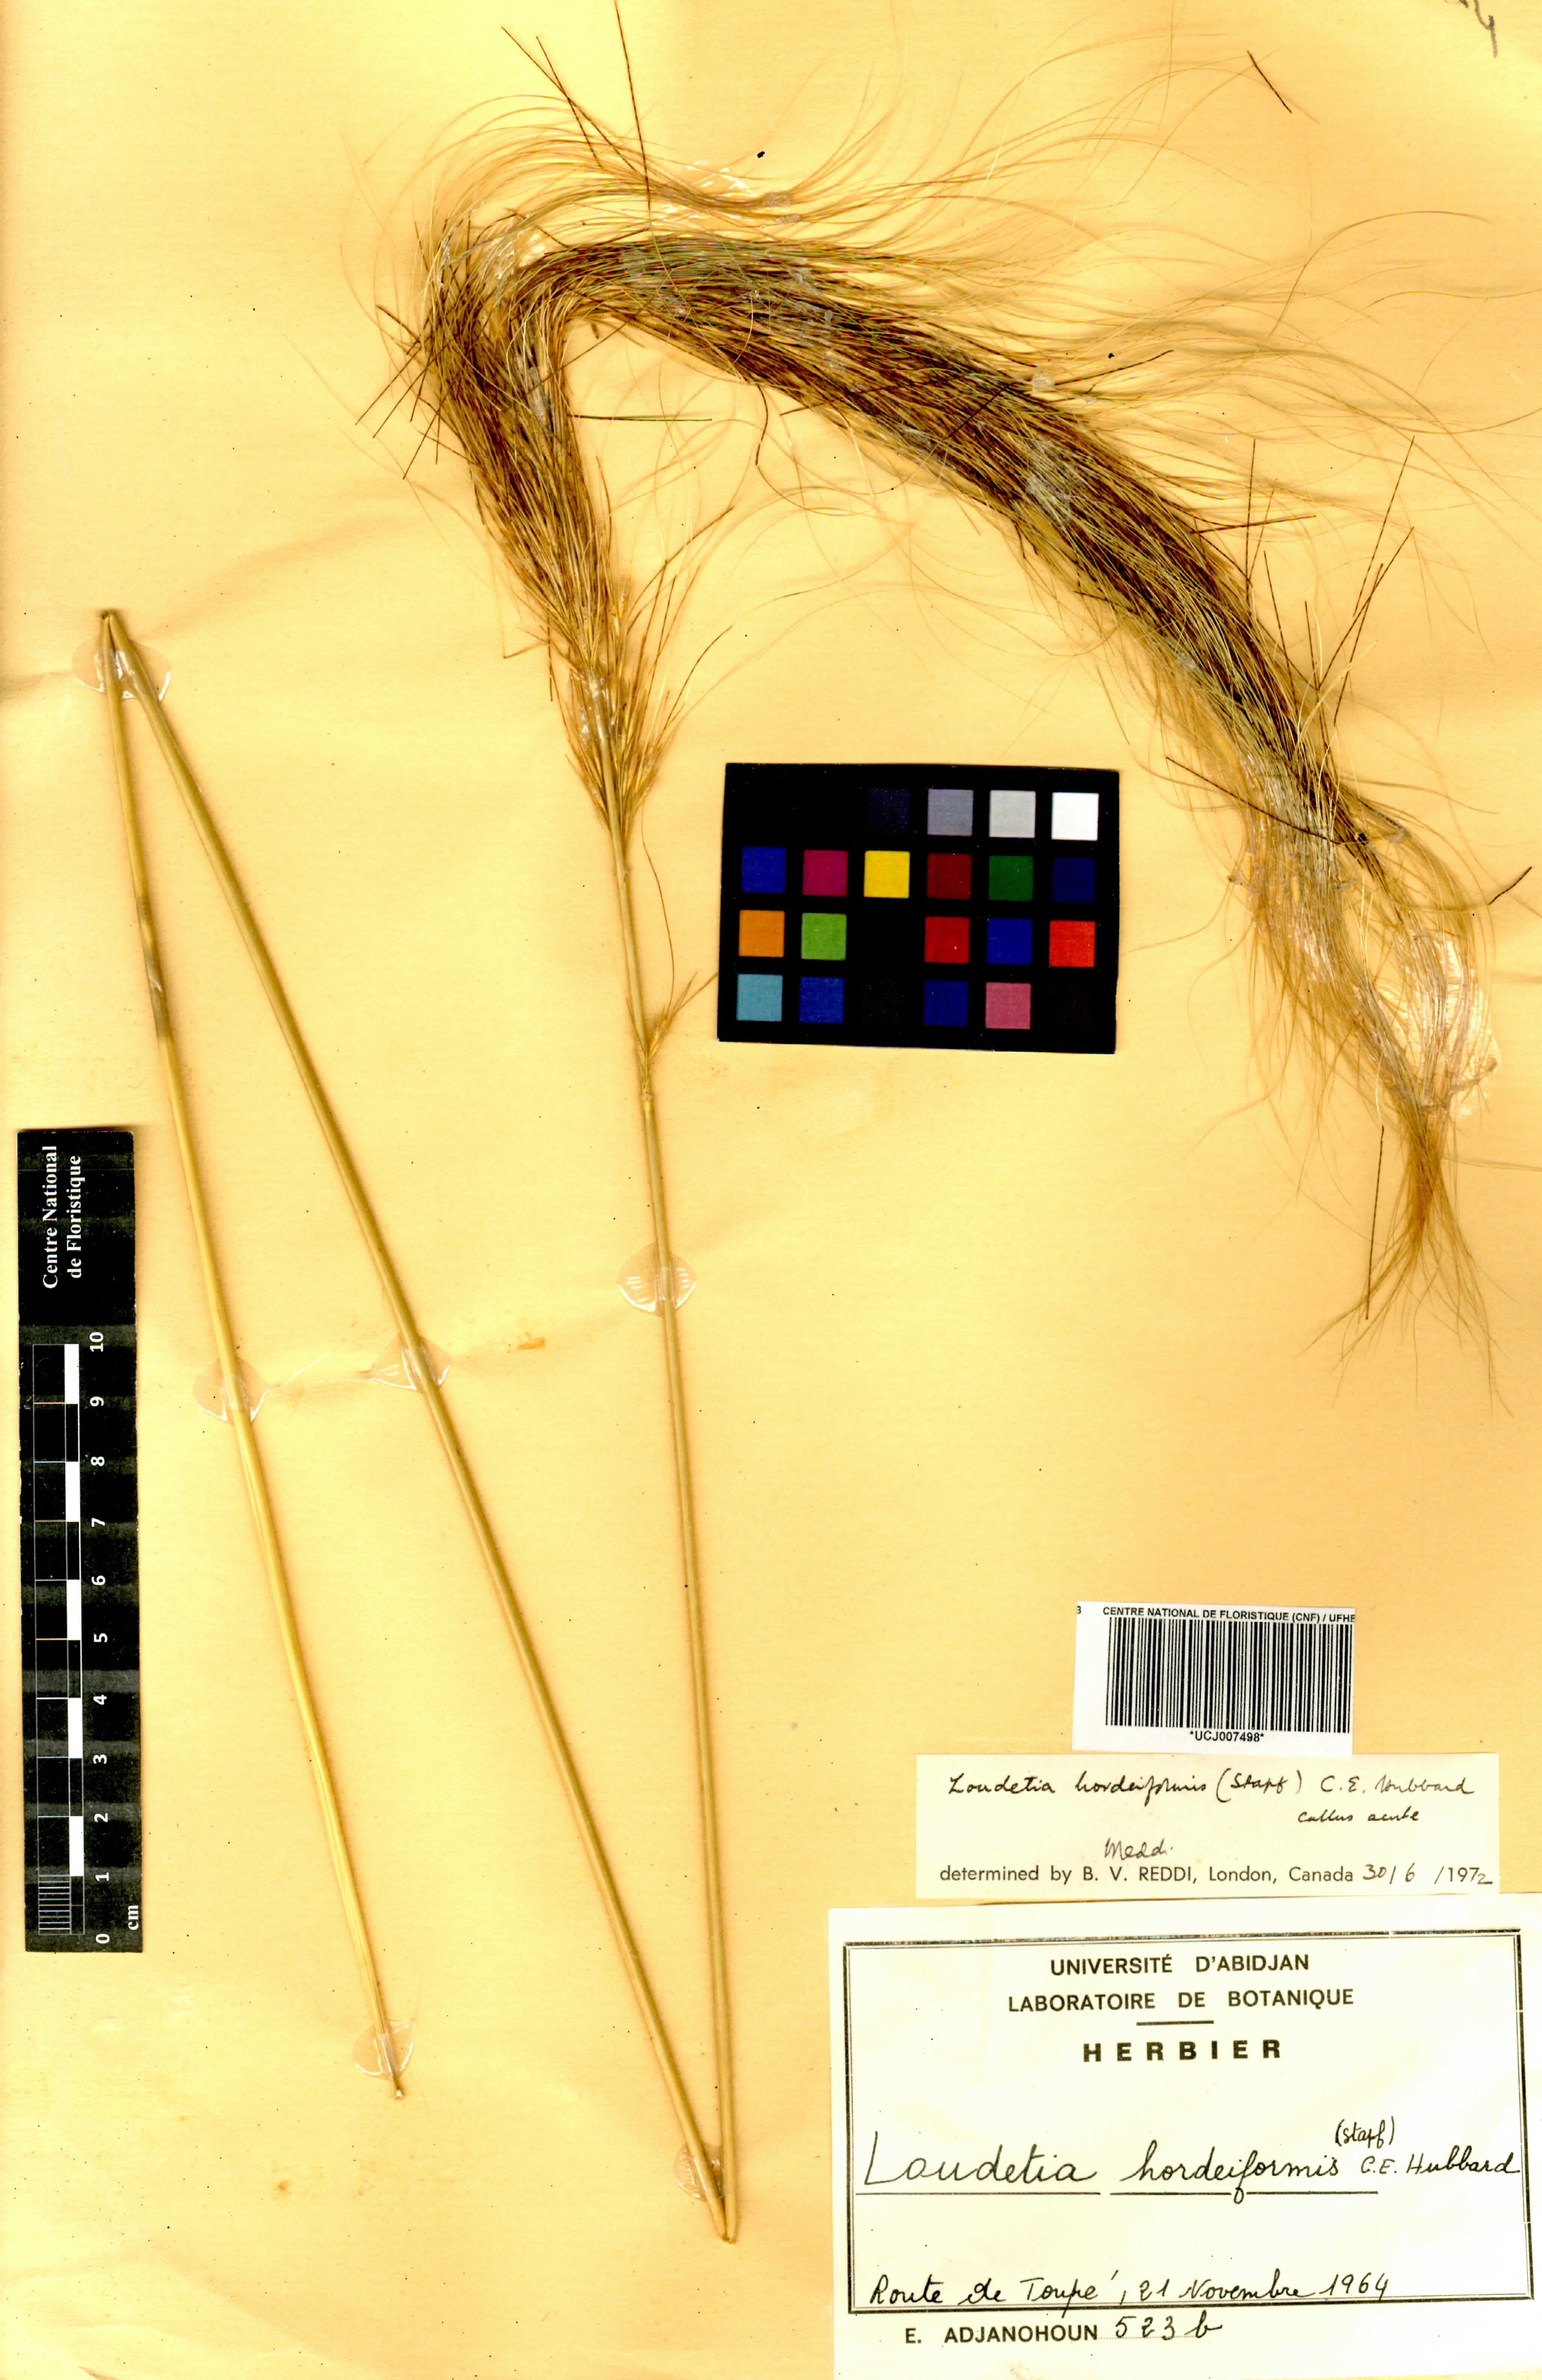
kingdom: Plantae
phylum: Tracheophyta
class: Liliopsida
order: Poales
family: Poaceae
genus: Loudetia
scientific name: Loudetia hordeiformis
